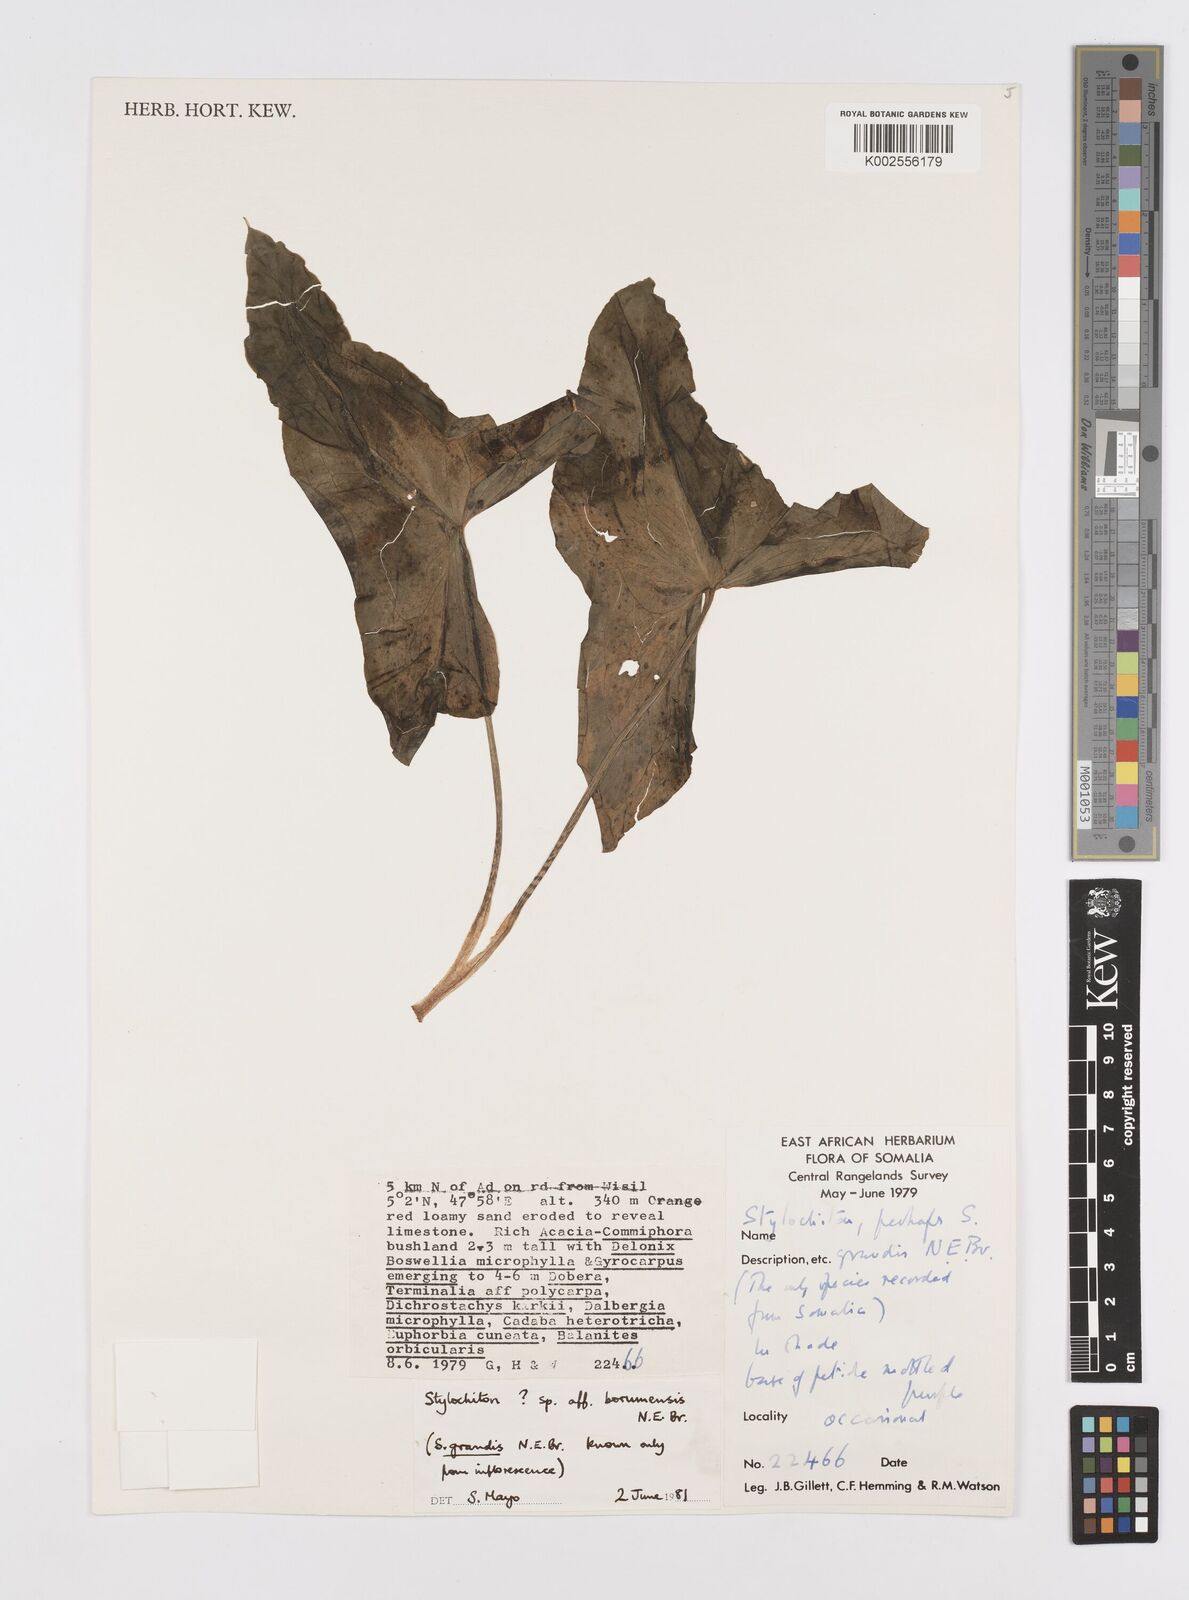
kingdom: Plantae
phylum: Tracheophyta
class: Liliopsida
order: Alismatales
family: Araceae
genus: Stylochaeton
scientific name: Stylochaeton
